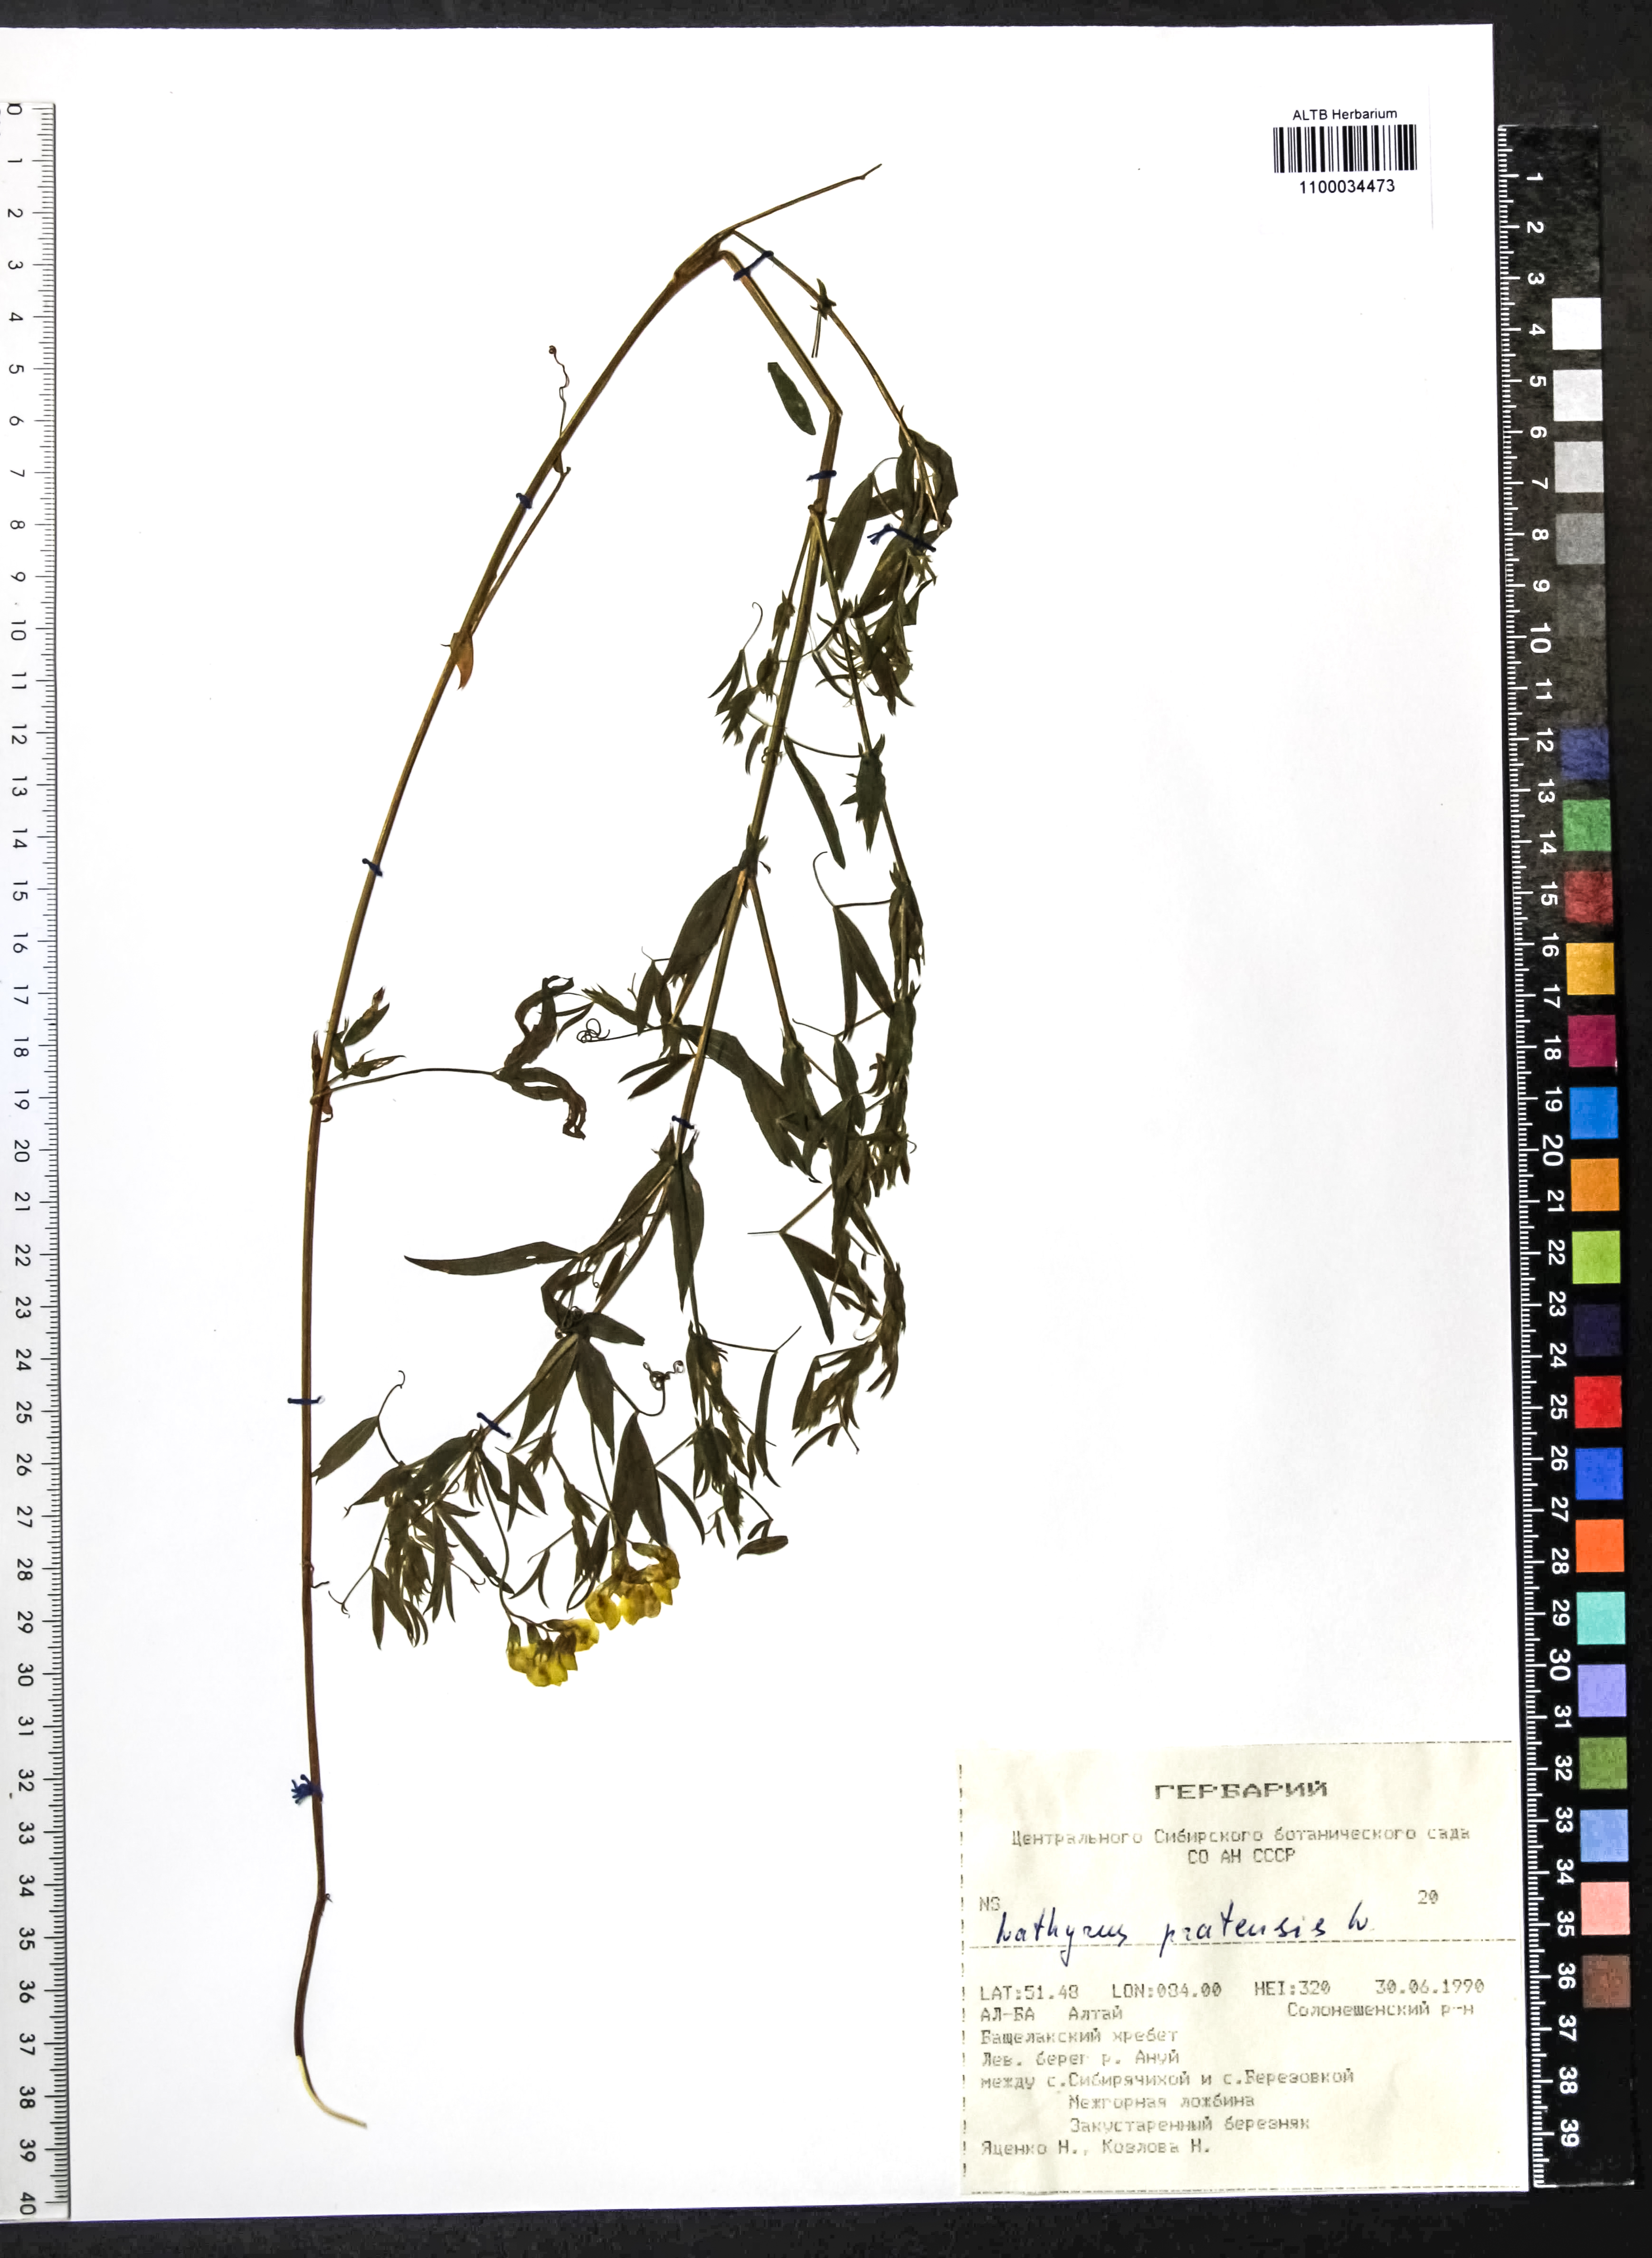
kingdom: Plantae
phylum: Tracheophyta
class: Magnoliopsida
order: Fabales
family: Fabaceae
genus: Lathyrus
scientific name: Lathyrus pratensis
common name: Meadow vetchling
